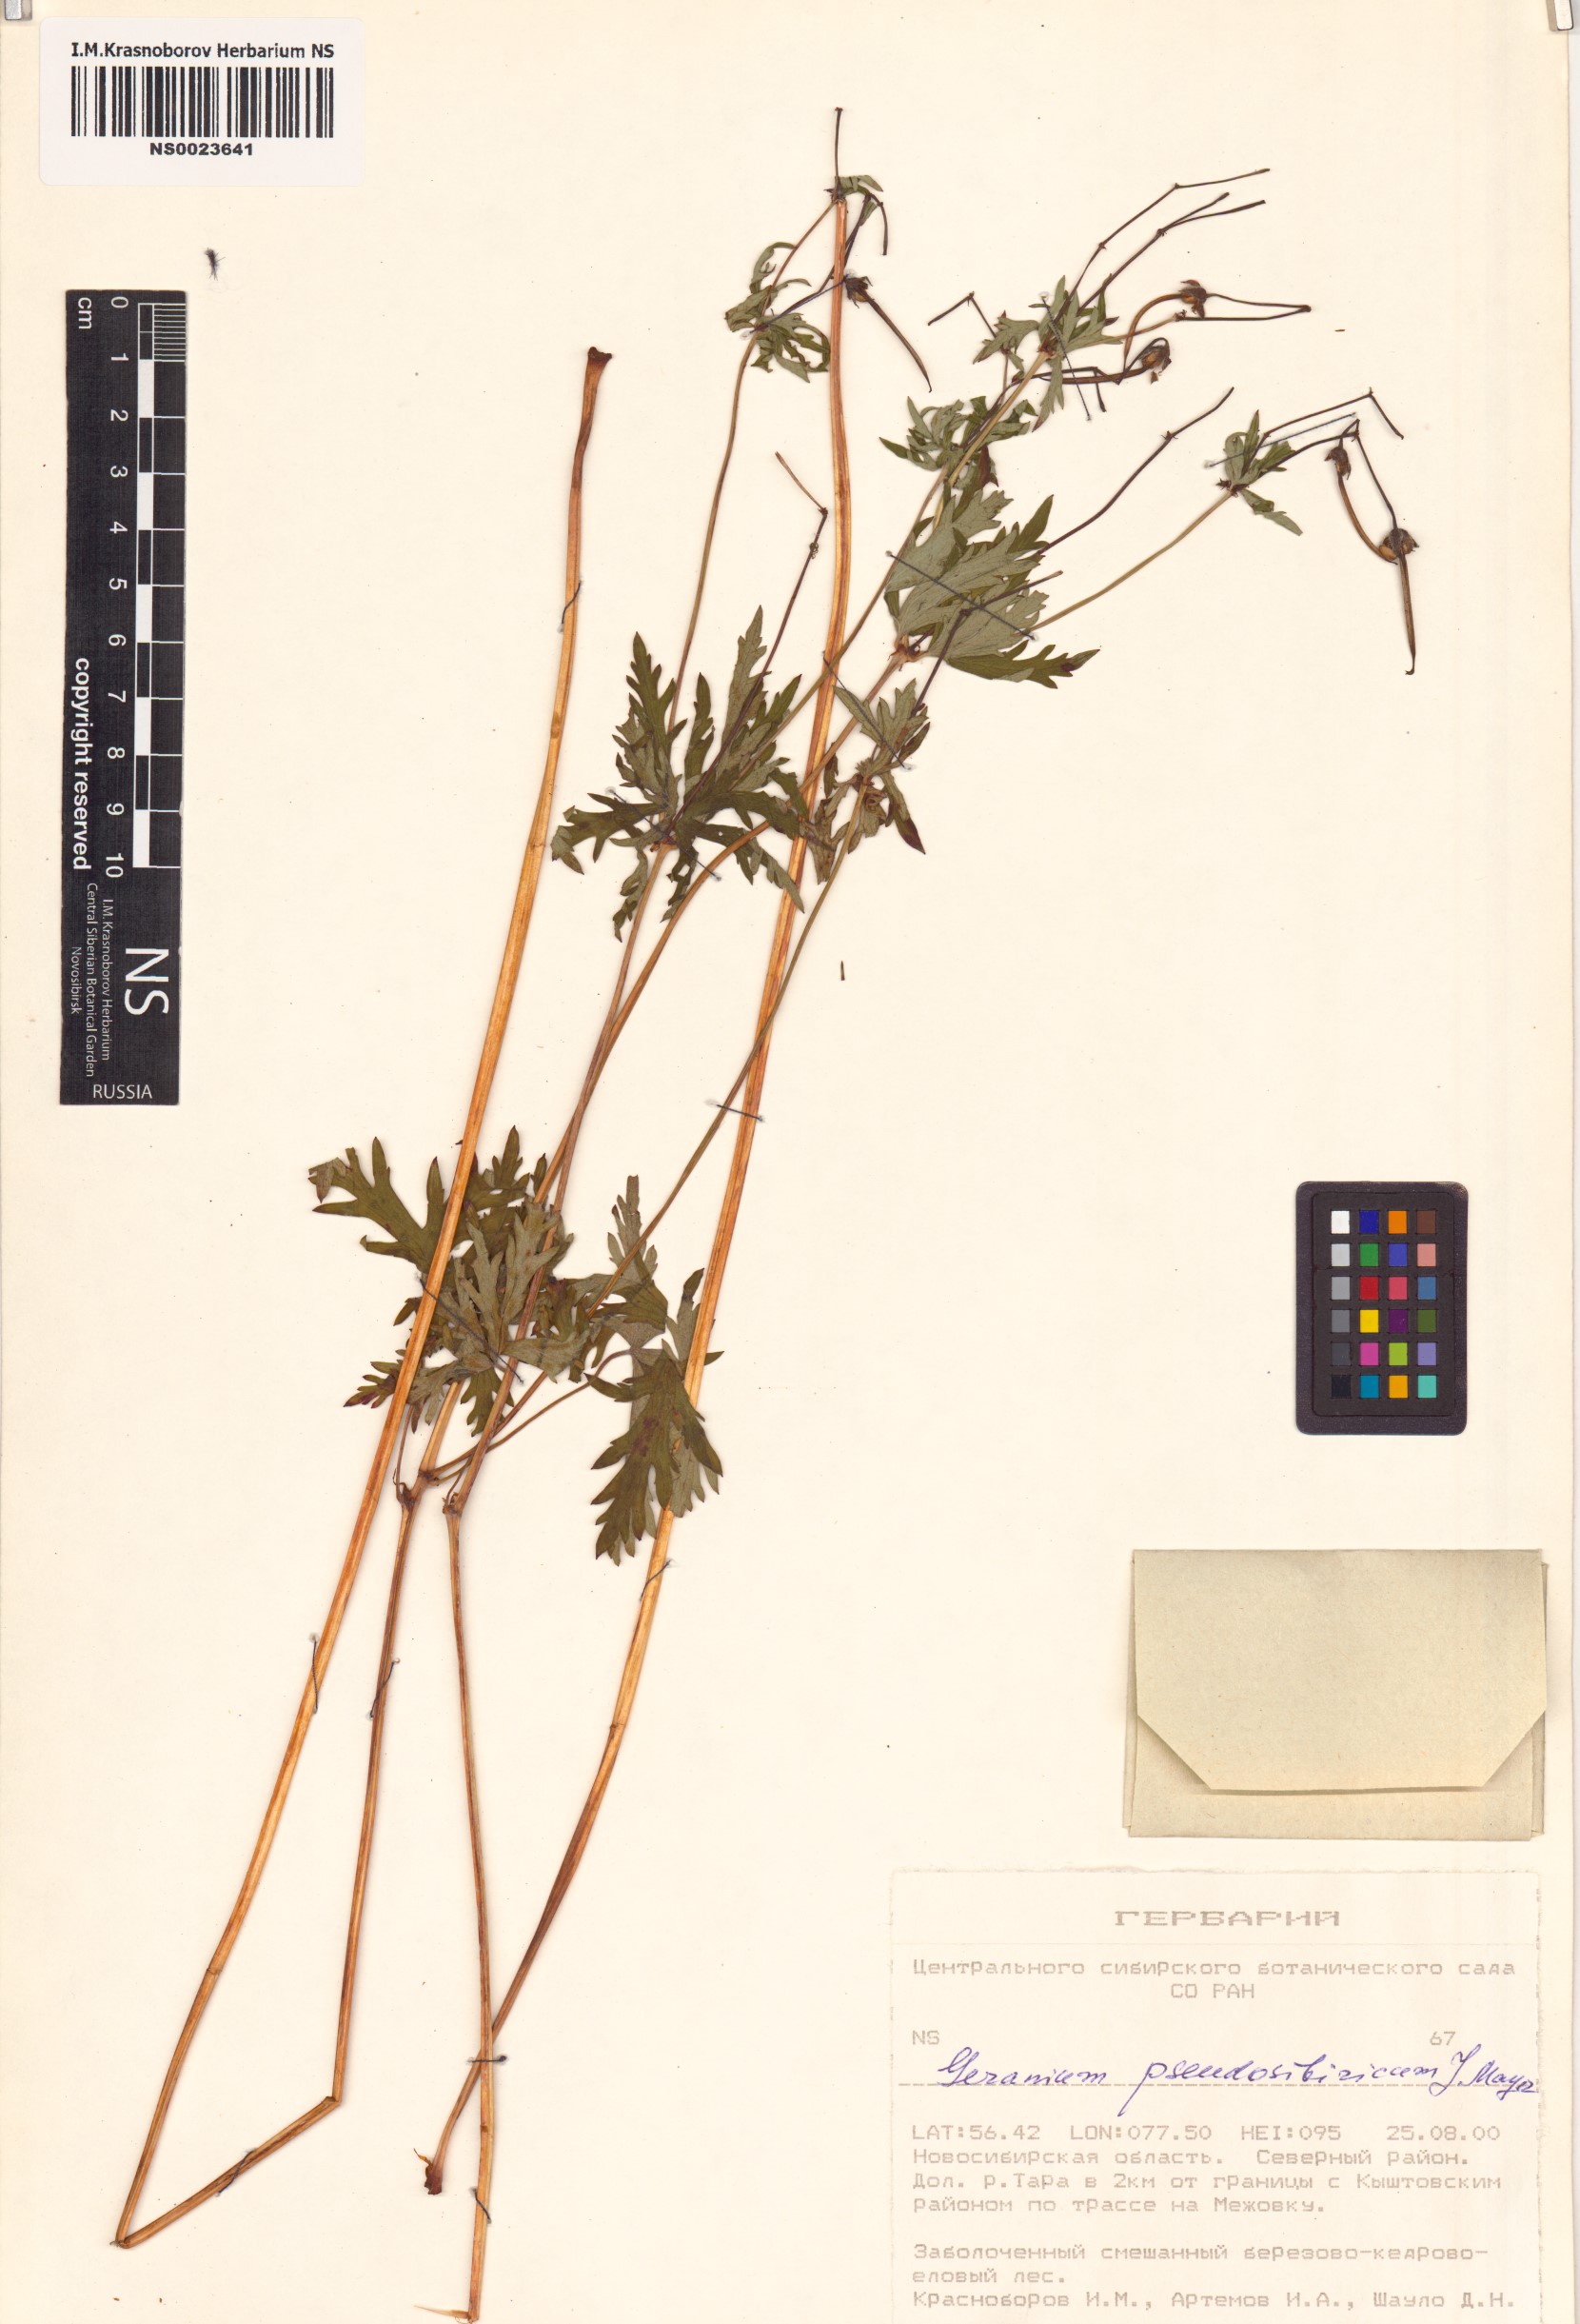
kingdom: Plantae
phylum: Tracheophyta
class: Magnoliopsida
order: Geraniales
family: Geraniaceae
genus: Geranium
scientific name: Geranium pseudosibiricum
